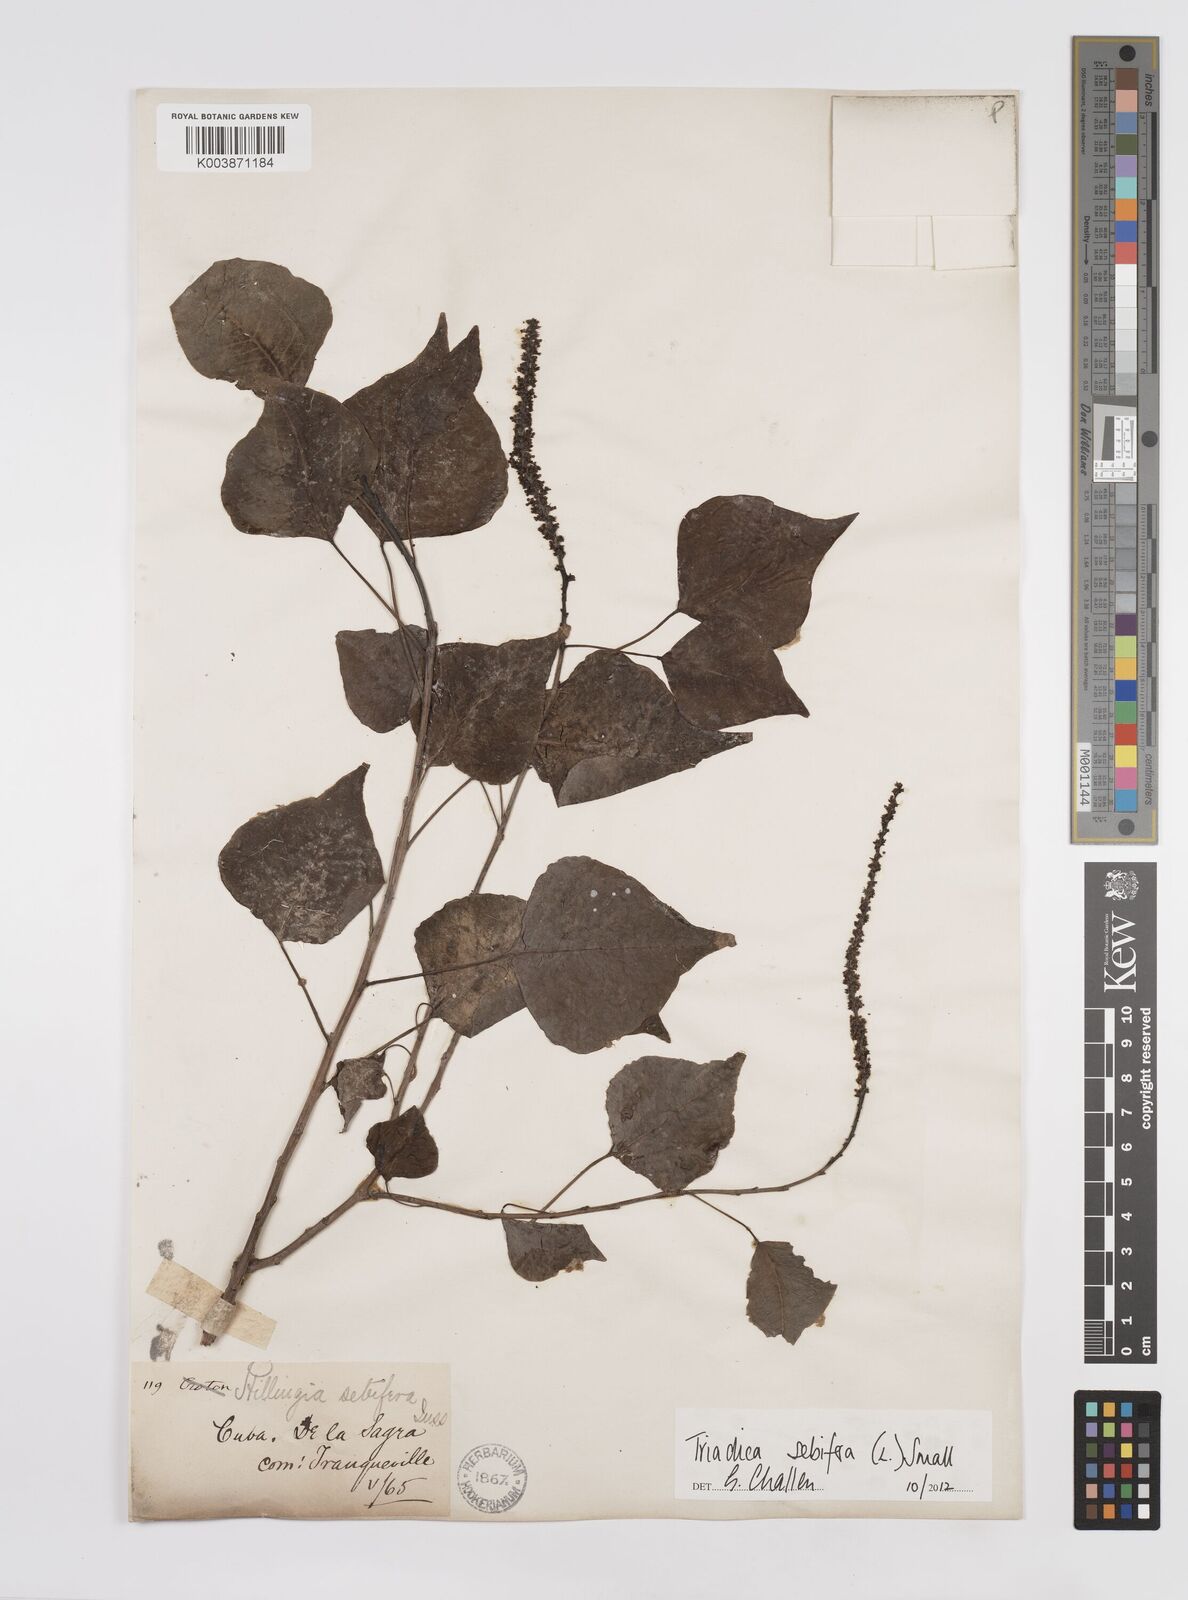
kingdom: Plantae
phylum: Tracheophyta
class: Magnoliopsida
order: Malpighiales
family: Euphorbiaceae
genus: Triadica
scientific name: Triadica sebifera
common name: Chinese tallow
